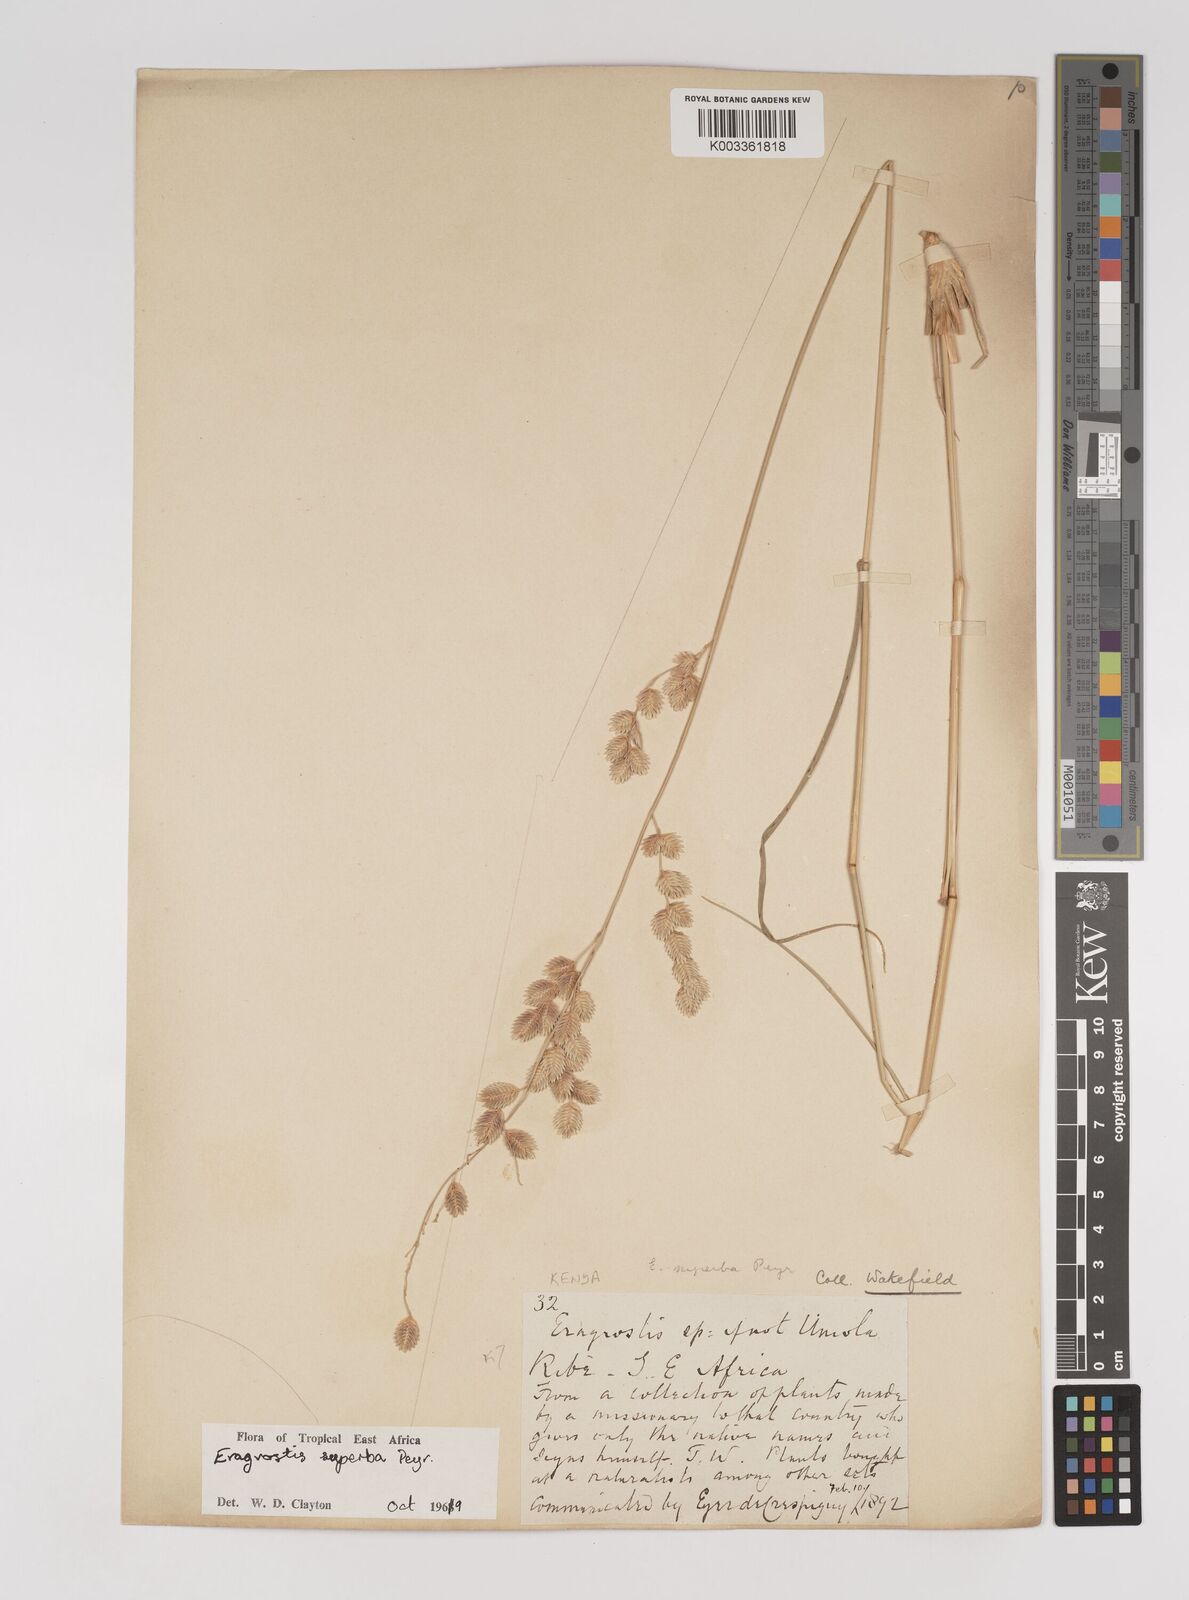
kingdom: Plantae
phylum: Tracheophyta
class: Liliopsida
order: Poales
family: Poaceae
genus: Eragrostis
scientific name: Eragrostis superba
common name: Wilman lovegrass
